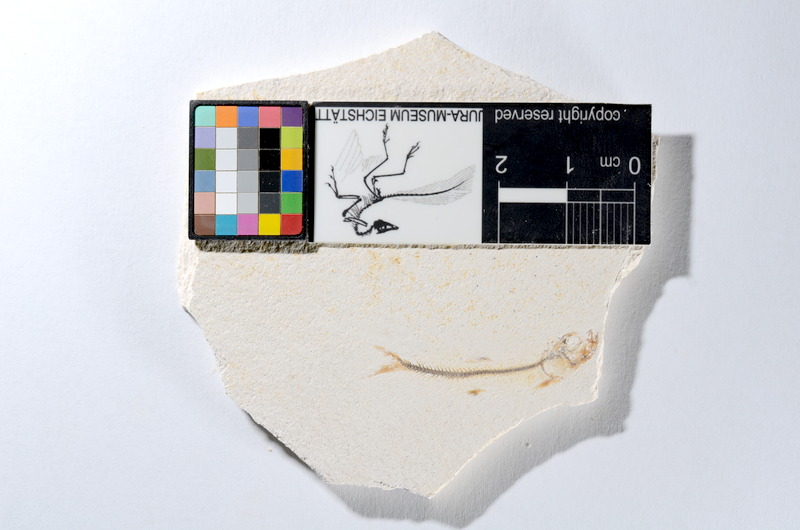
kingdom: Animalia
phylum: Chordata
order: Salmoniformes
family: Orthogonikleithridae
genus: Orthogonikleithrus
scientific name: Orthogonikleithrus hoelli
